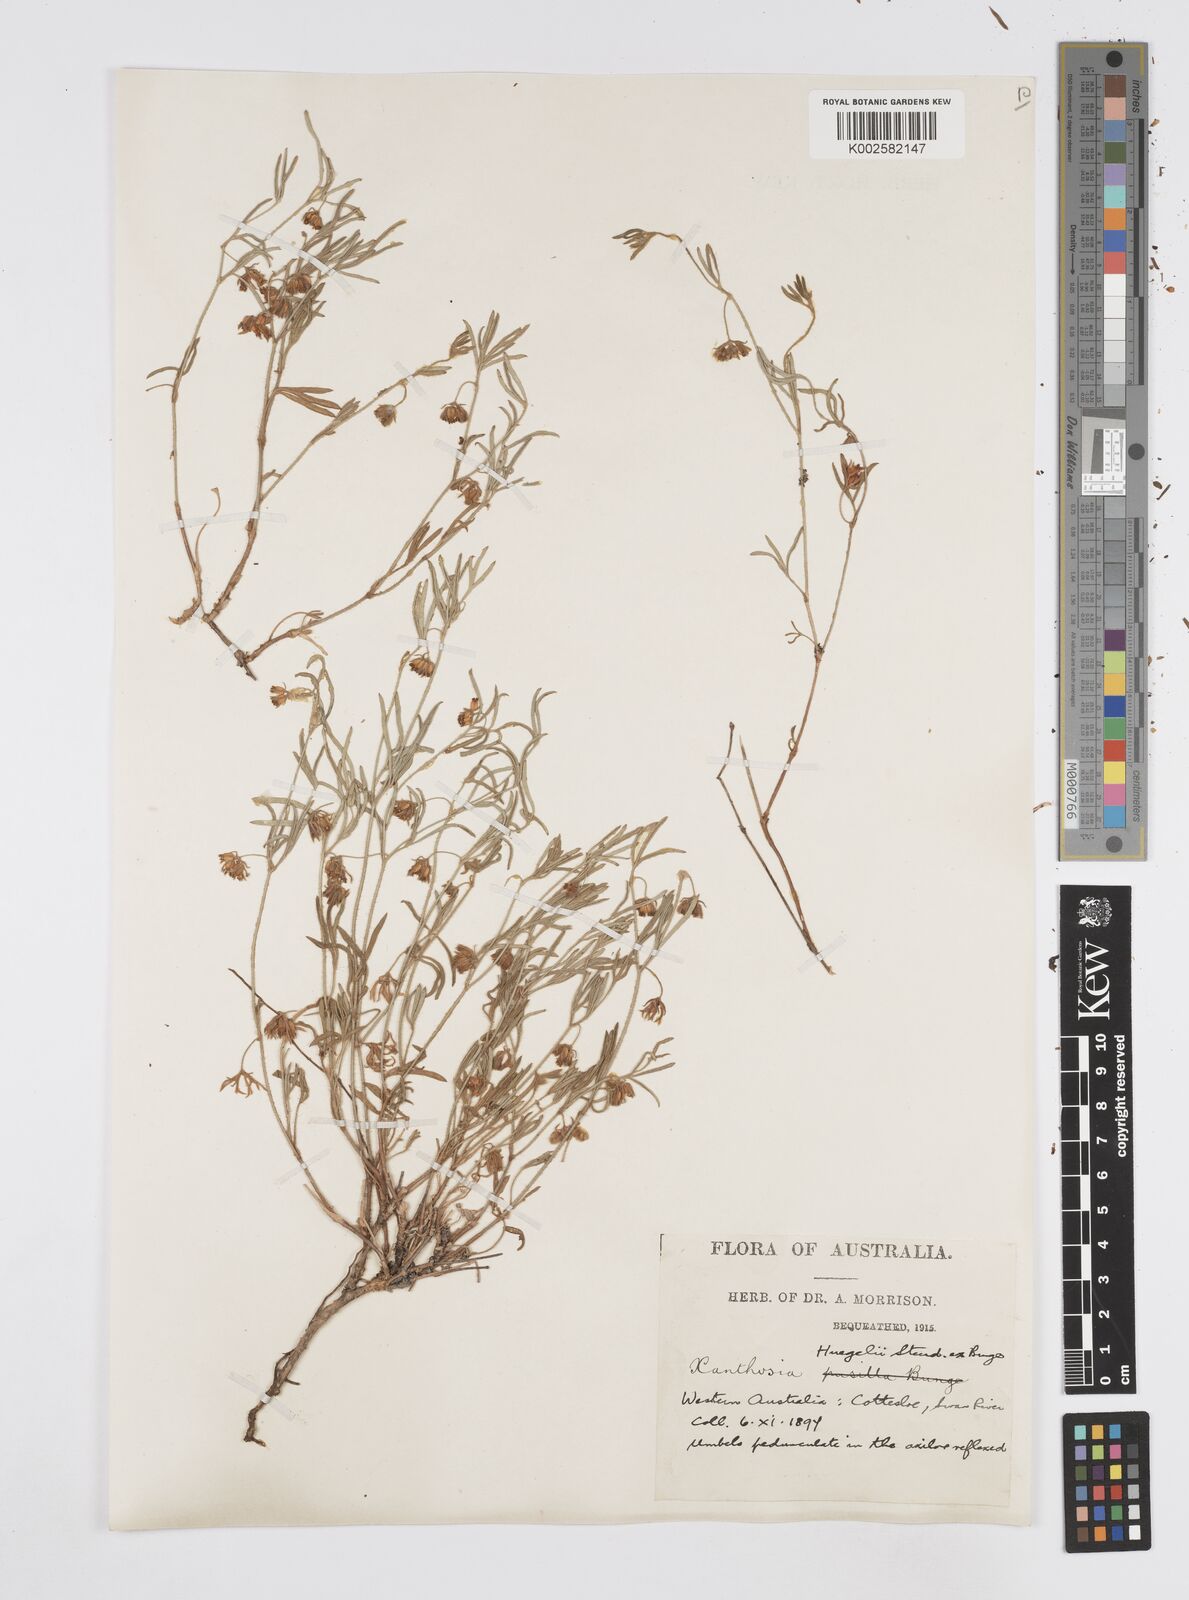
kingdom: Plantae
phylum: Tracheophyta
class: Magnoliopsida
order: Apiales
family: Apiaceae
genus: Xanthosia
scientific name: Xanthosia huegelii
